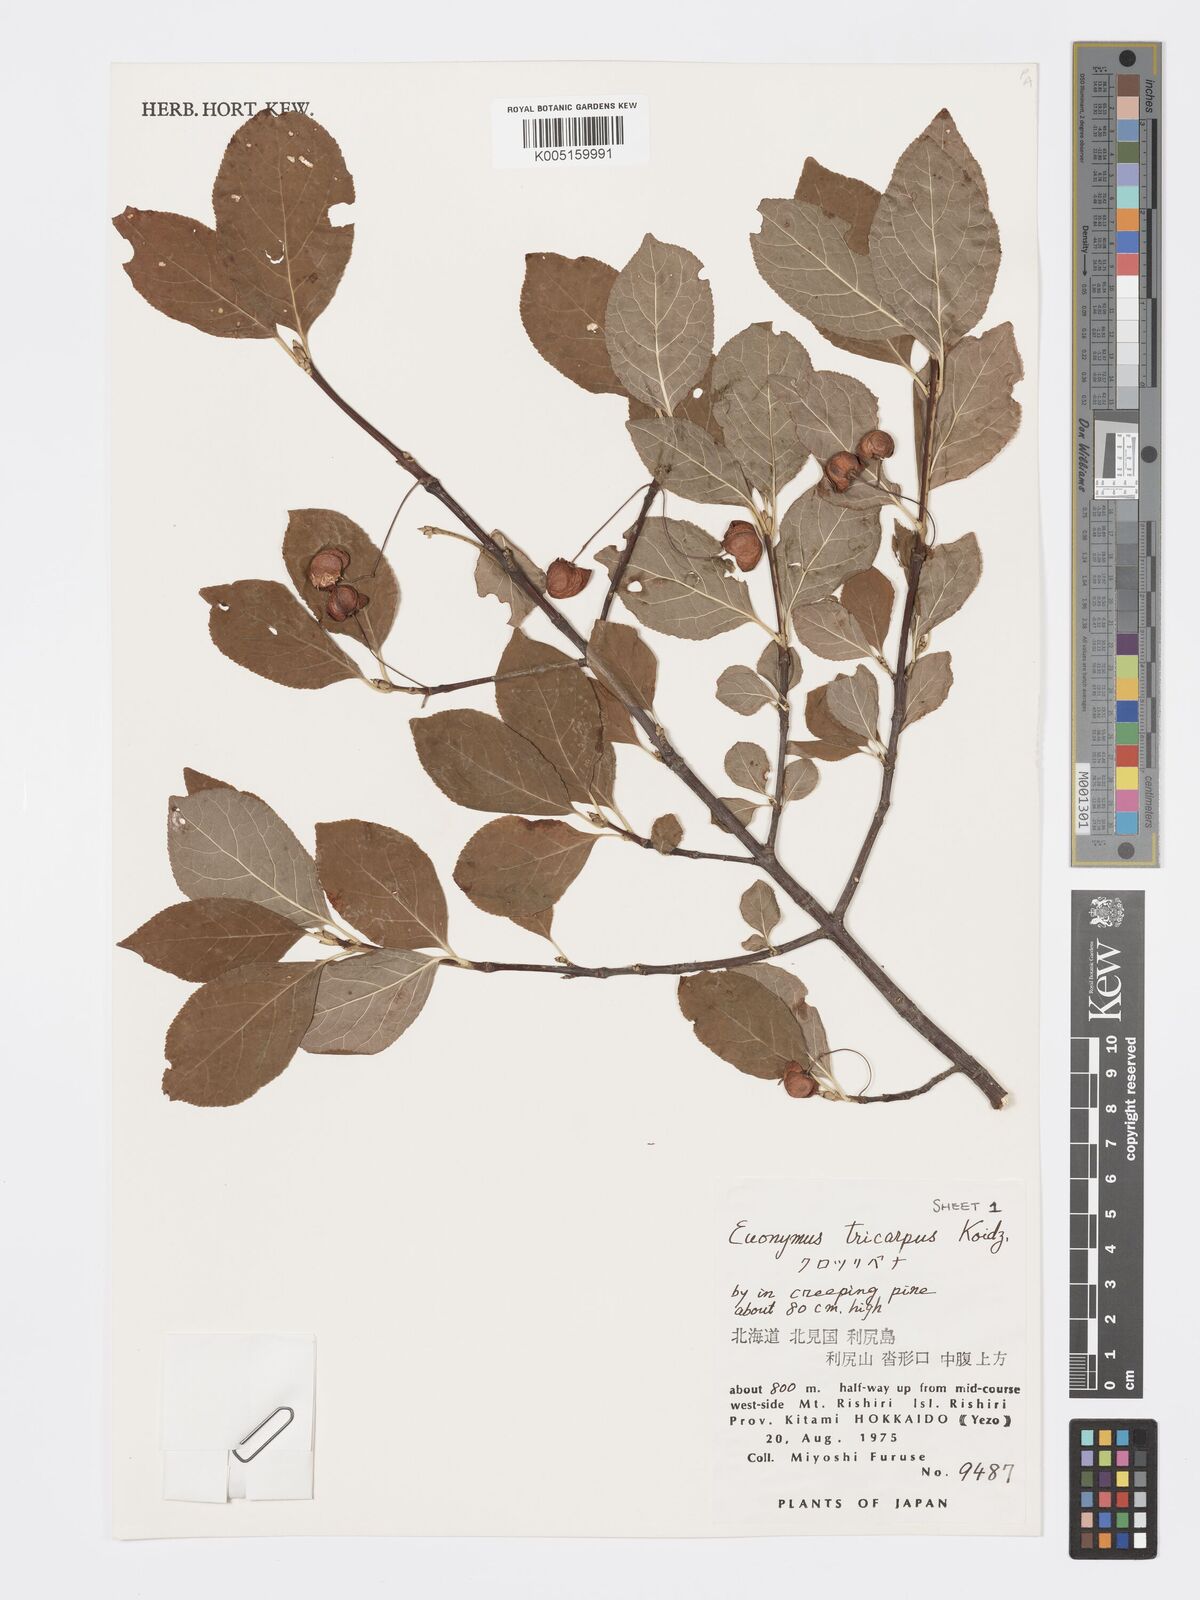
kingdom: Plantae
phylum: Tracheophyta
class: Magnoliopsida
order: Celastrales
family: Celastraceae
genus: Euonymus
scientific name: Euonymus sachalinensis
